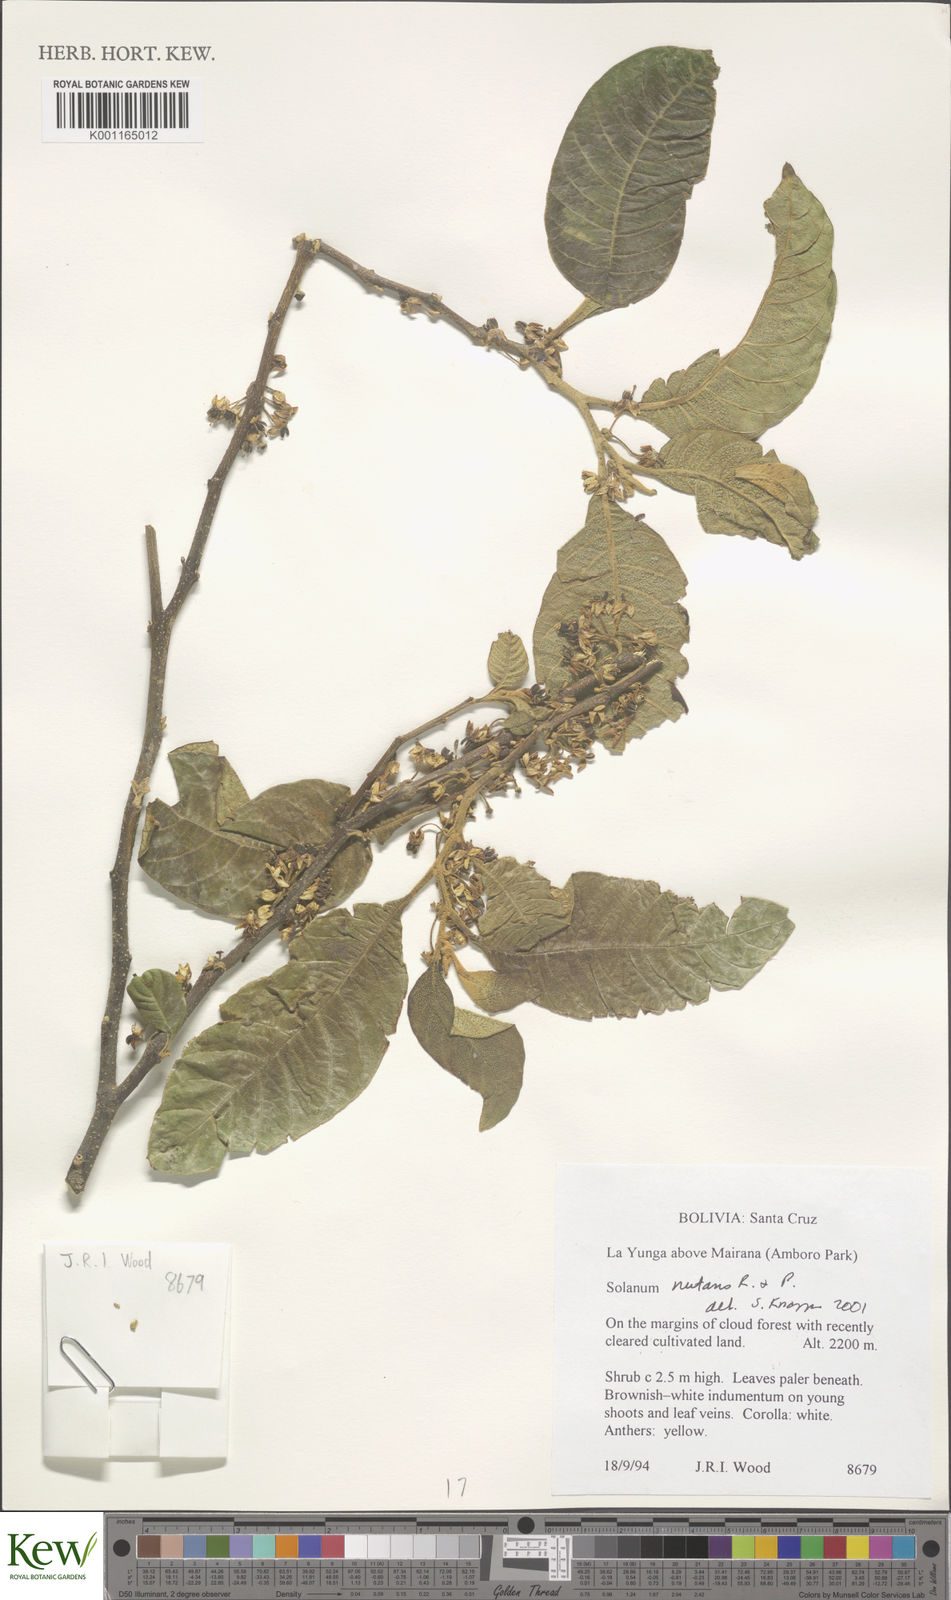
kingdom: Plantae
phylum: Tracheophyta
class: Magnoliopsida
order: Solanales
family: Solanaceae
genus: Solanum
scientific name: Solanum nutans
